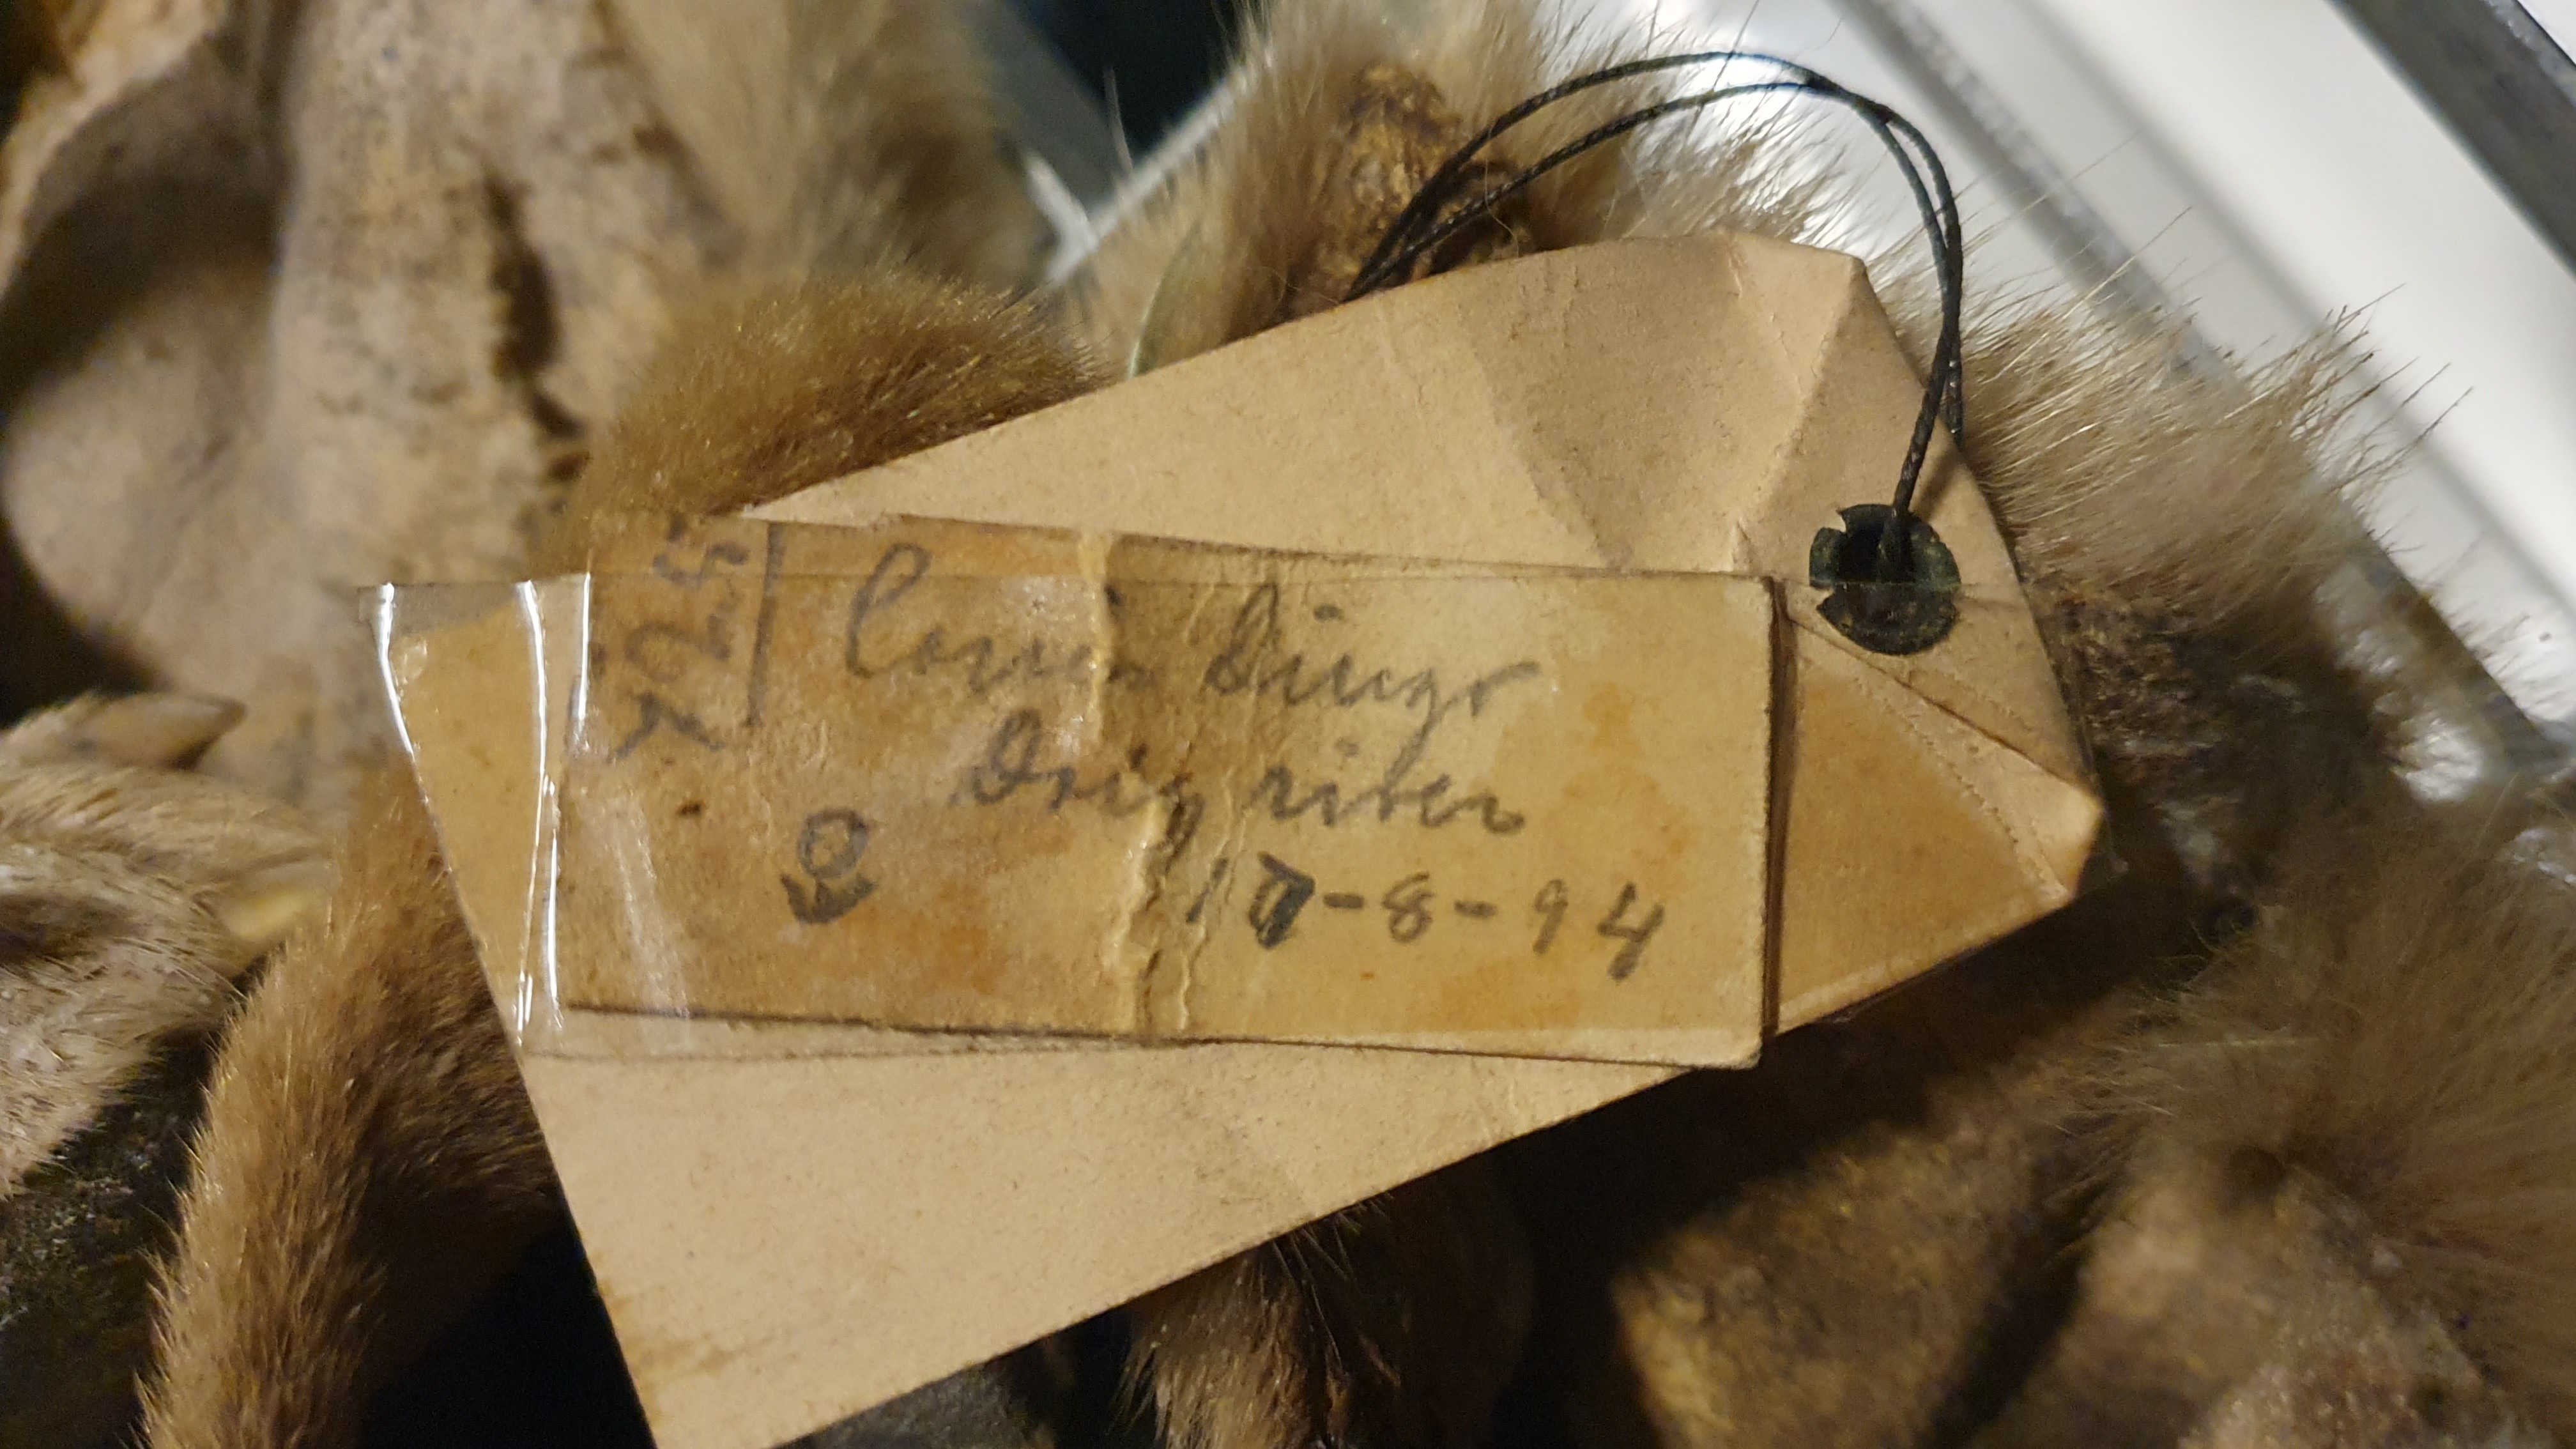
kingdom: Animalia
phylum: Chordata
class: Mammalia
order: Carnivora
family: Canidae
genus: Canis
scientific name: Canis lupus
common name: Gray wolf
